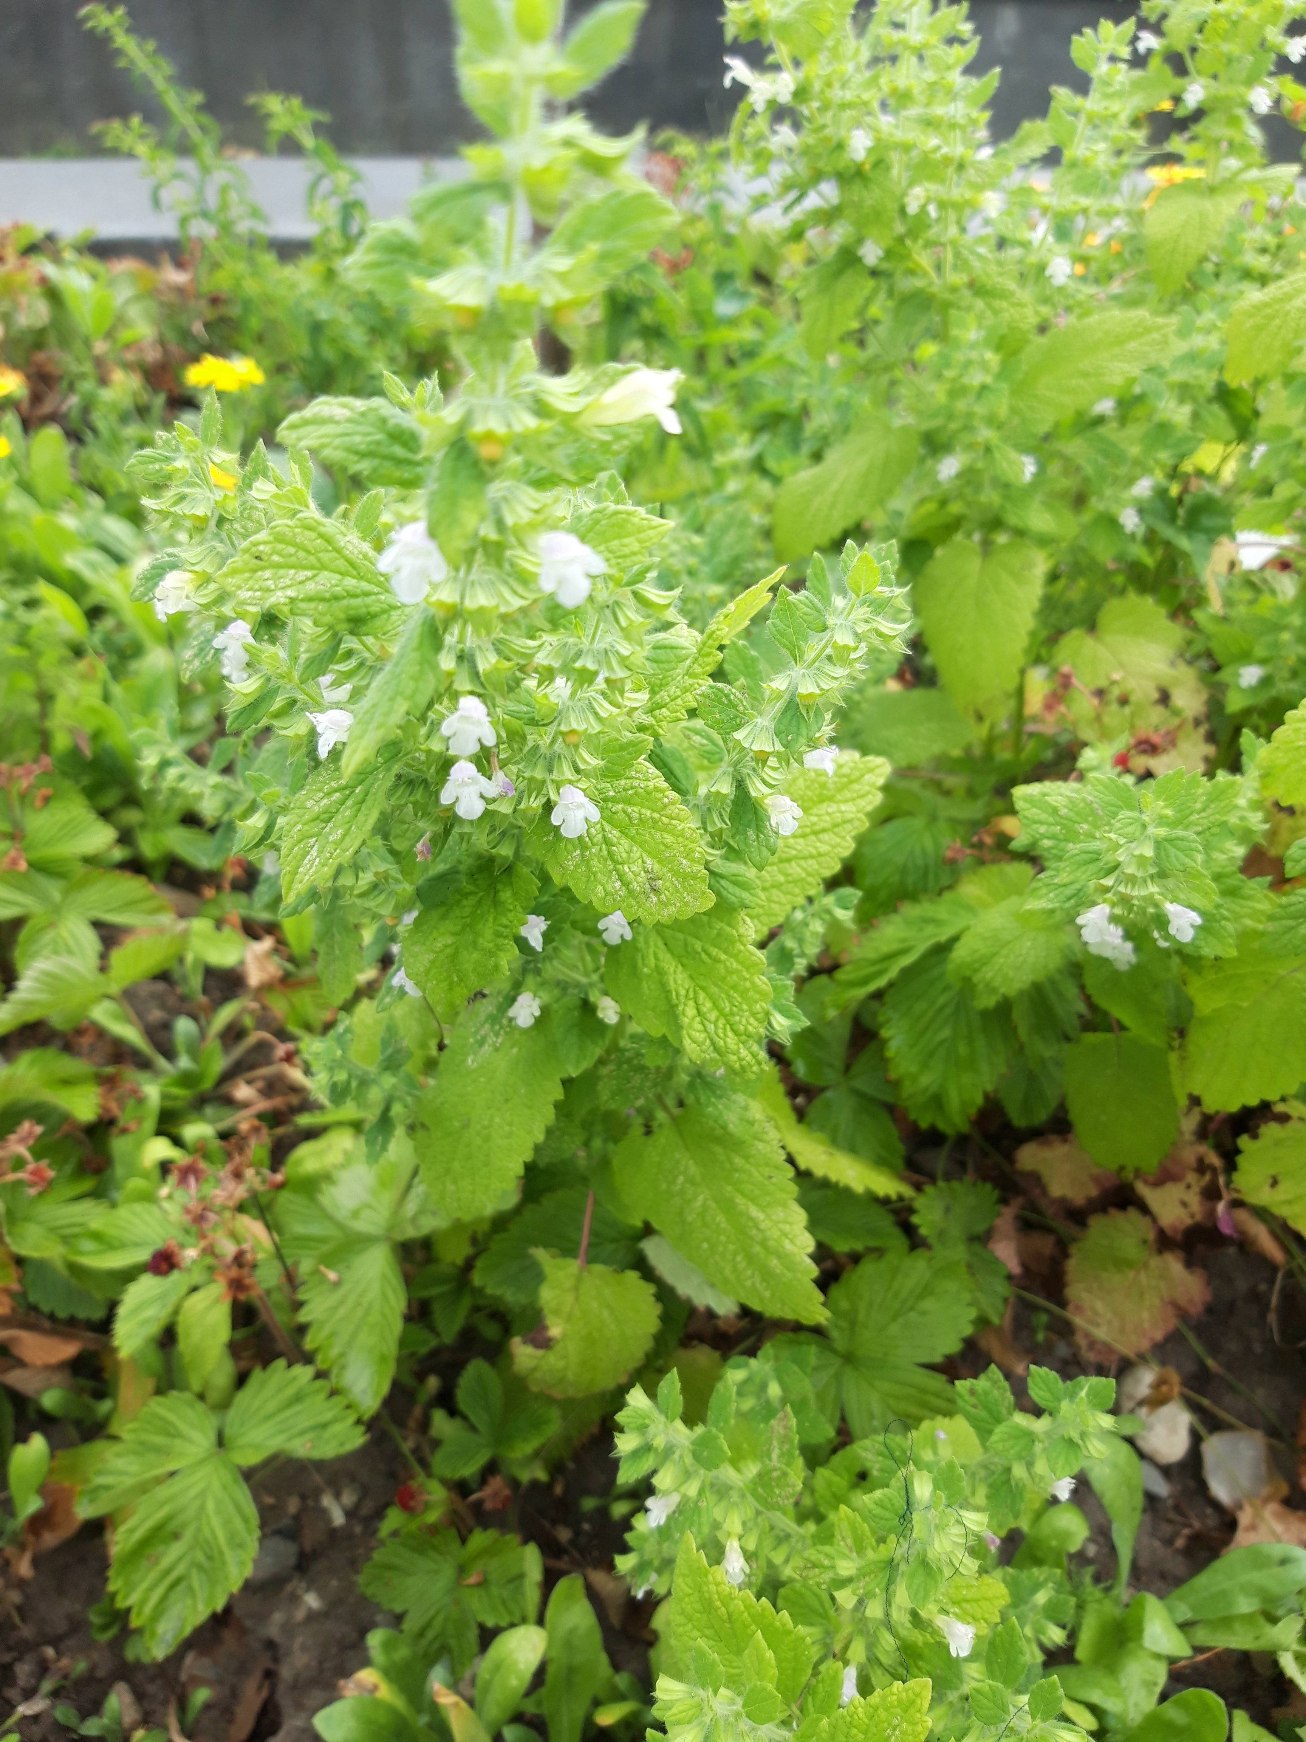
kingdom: Plantae
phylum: Tracheophyta
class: Magnoliopsida
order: Lamiales
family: Lamiaceae
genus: Melissa
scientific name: Melissa officinalis
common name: Citronmelisse
